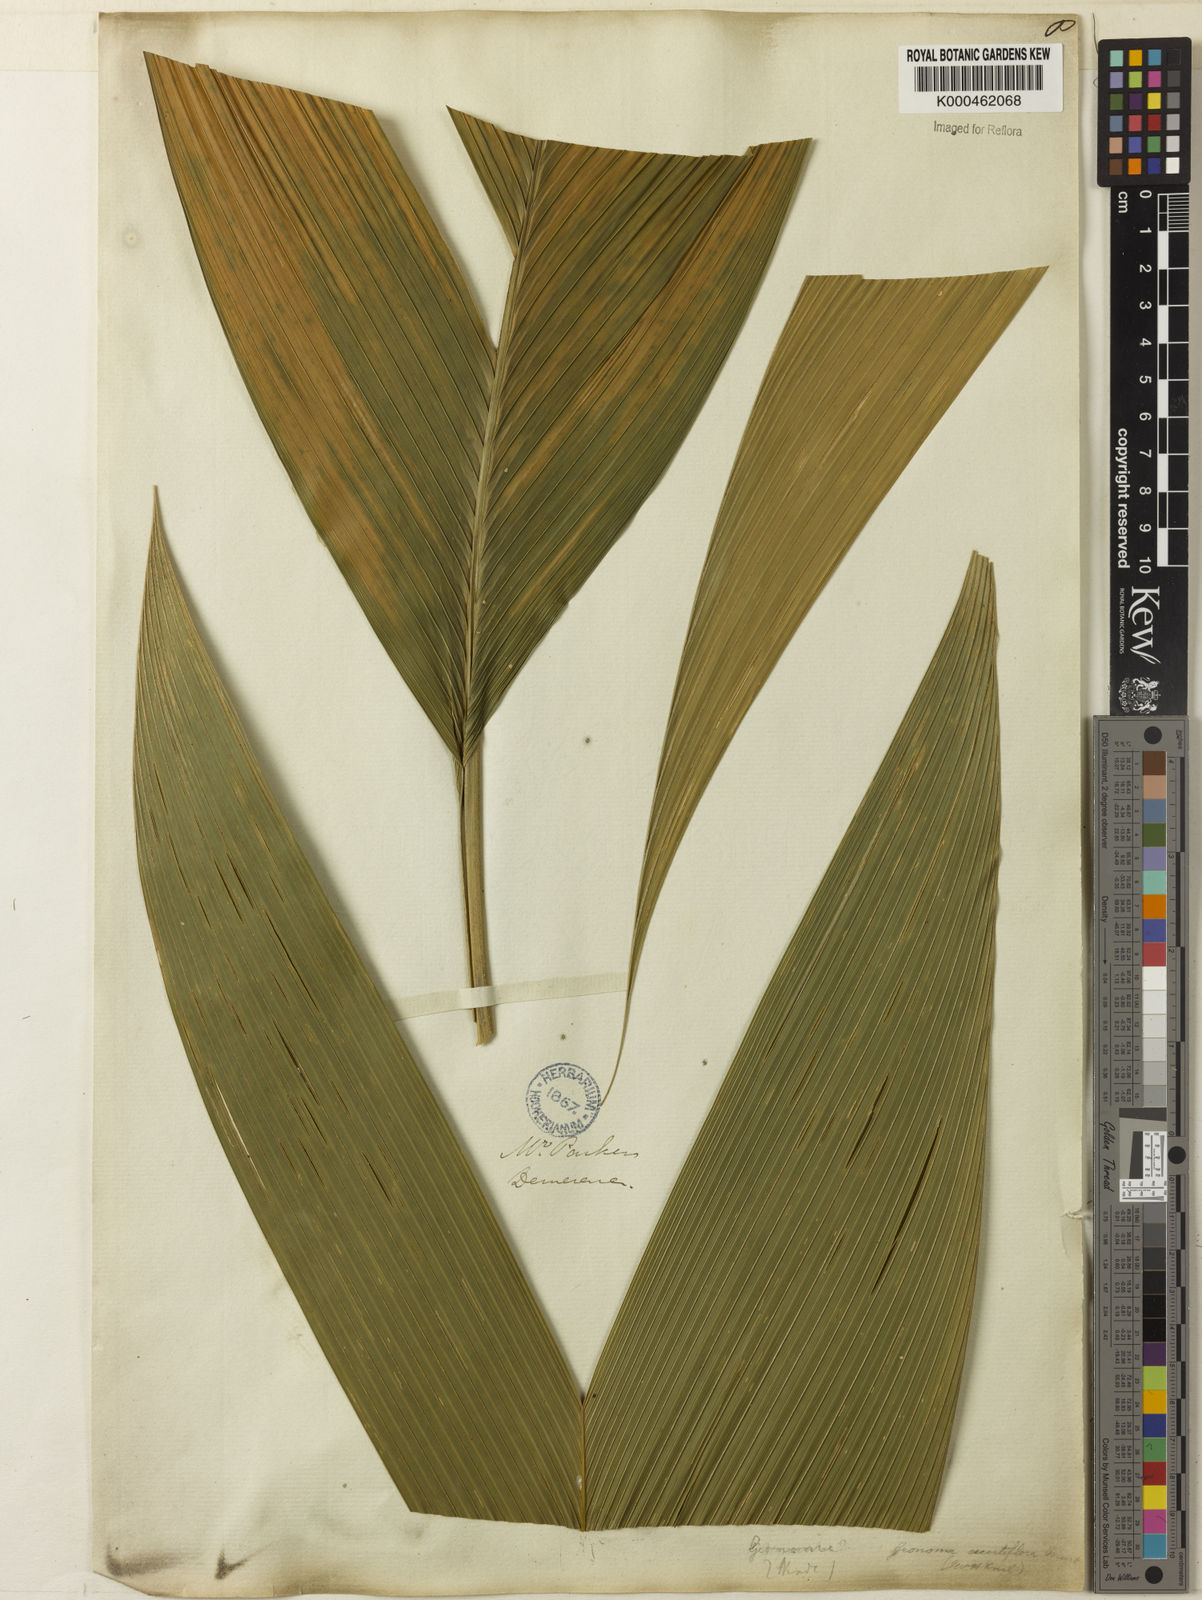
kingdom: Plantae
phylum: Tracheophyta
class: Liliopsida
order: Arecales
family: Arecaceae
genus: Geonoma
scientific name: Geonoma baculifera
